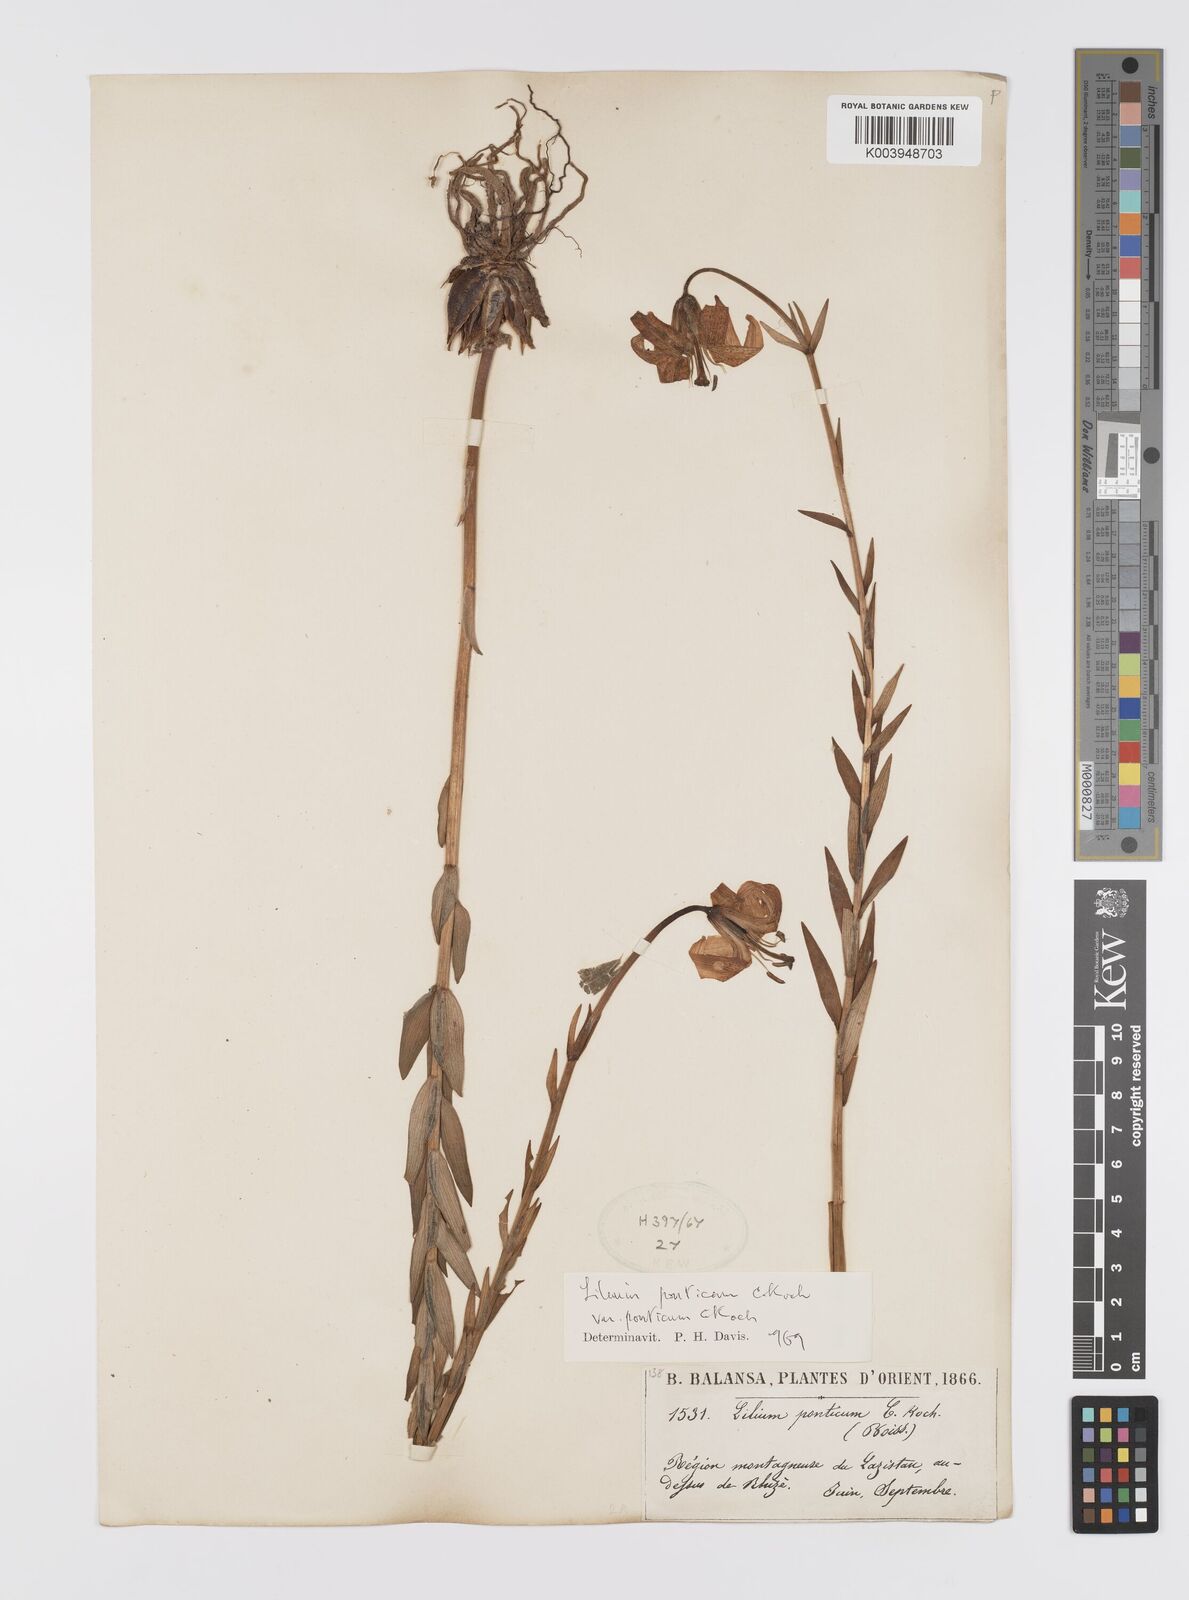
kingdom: Plantae
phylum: Tracheophyta
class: Liliopsida
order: Liliales
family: Liliaceae
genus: Lilium
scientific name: Lilium ponticum
